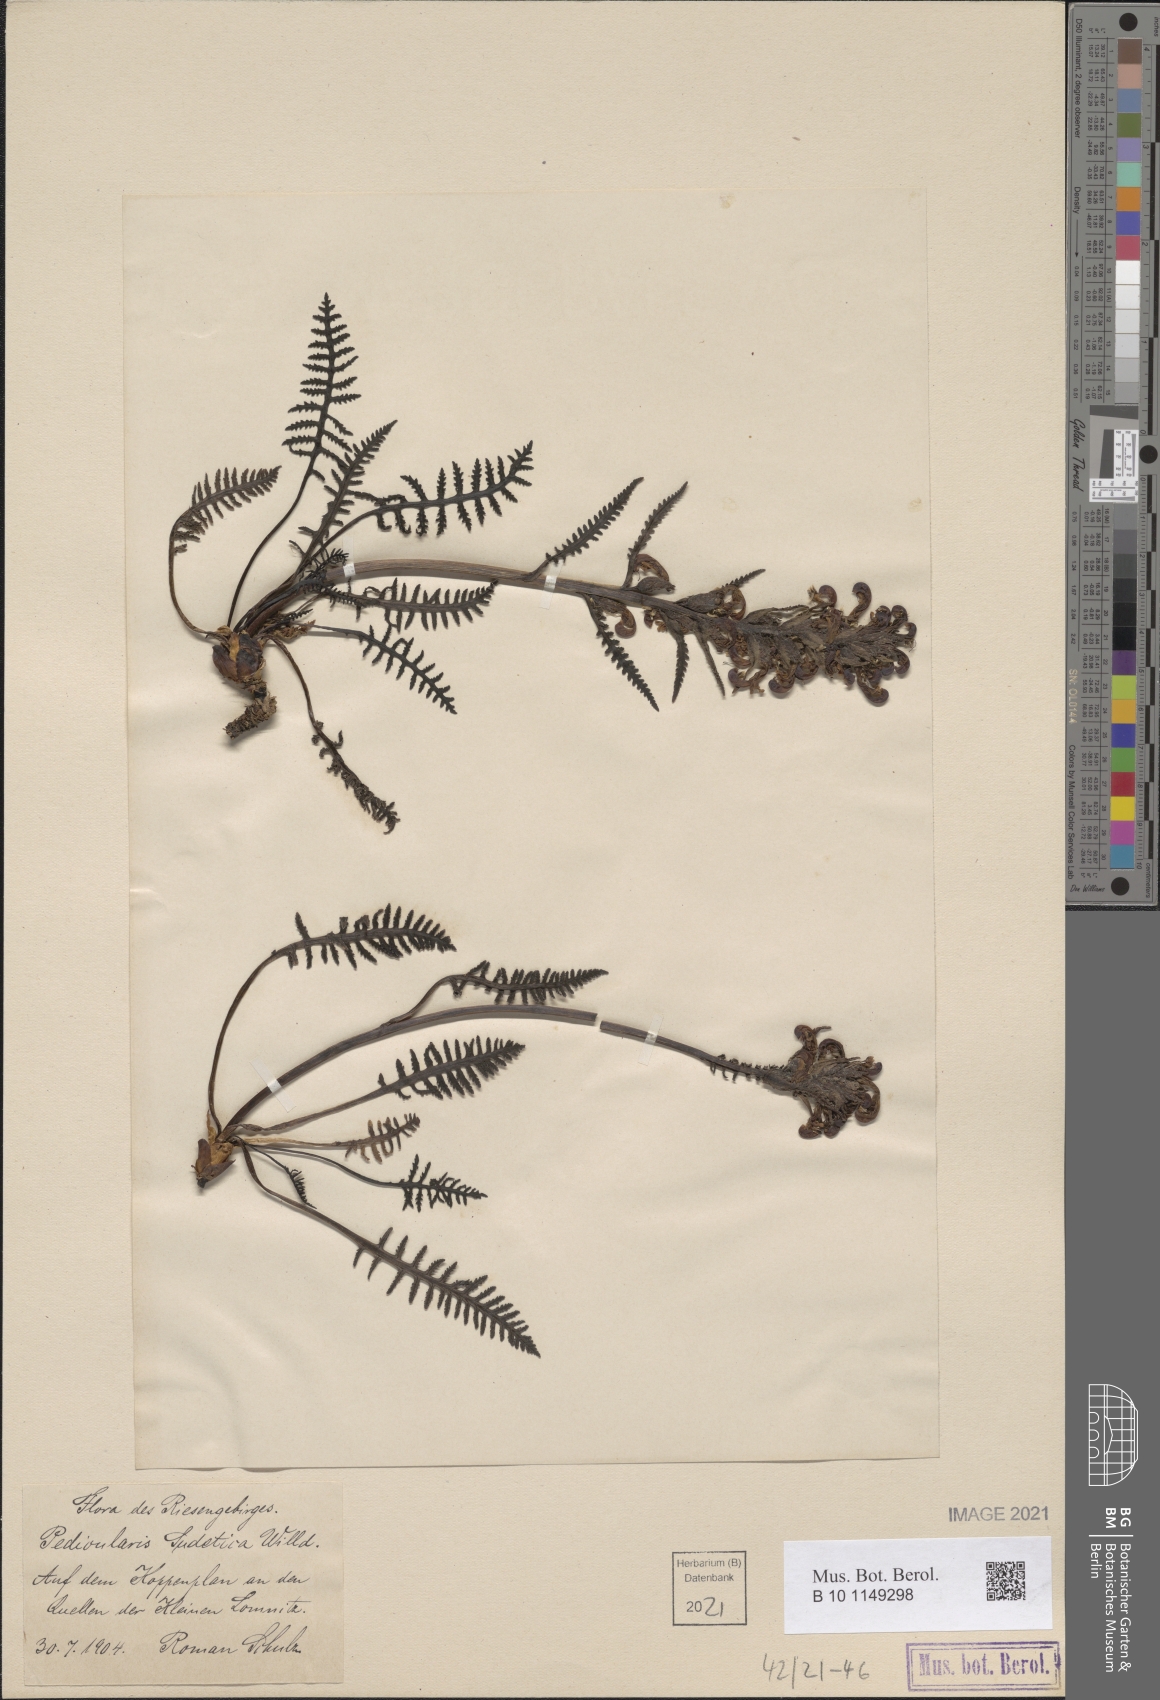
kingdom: Plantae
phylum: Tracheophyta
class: Magnoliopsida
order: Lamiales
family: Orobanchaceae
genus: Pedicularis
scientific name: Pedicularis sudetica
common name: Sudeten lousewort
